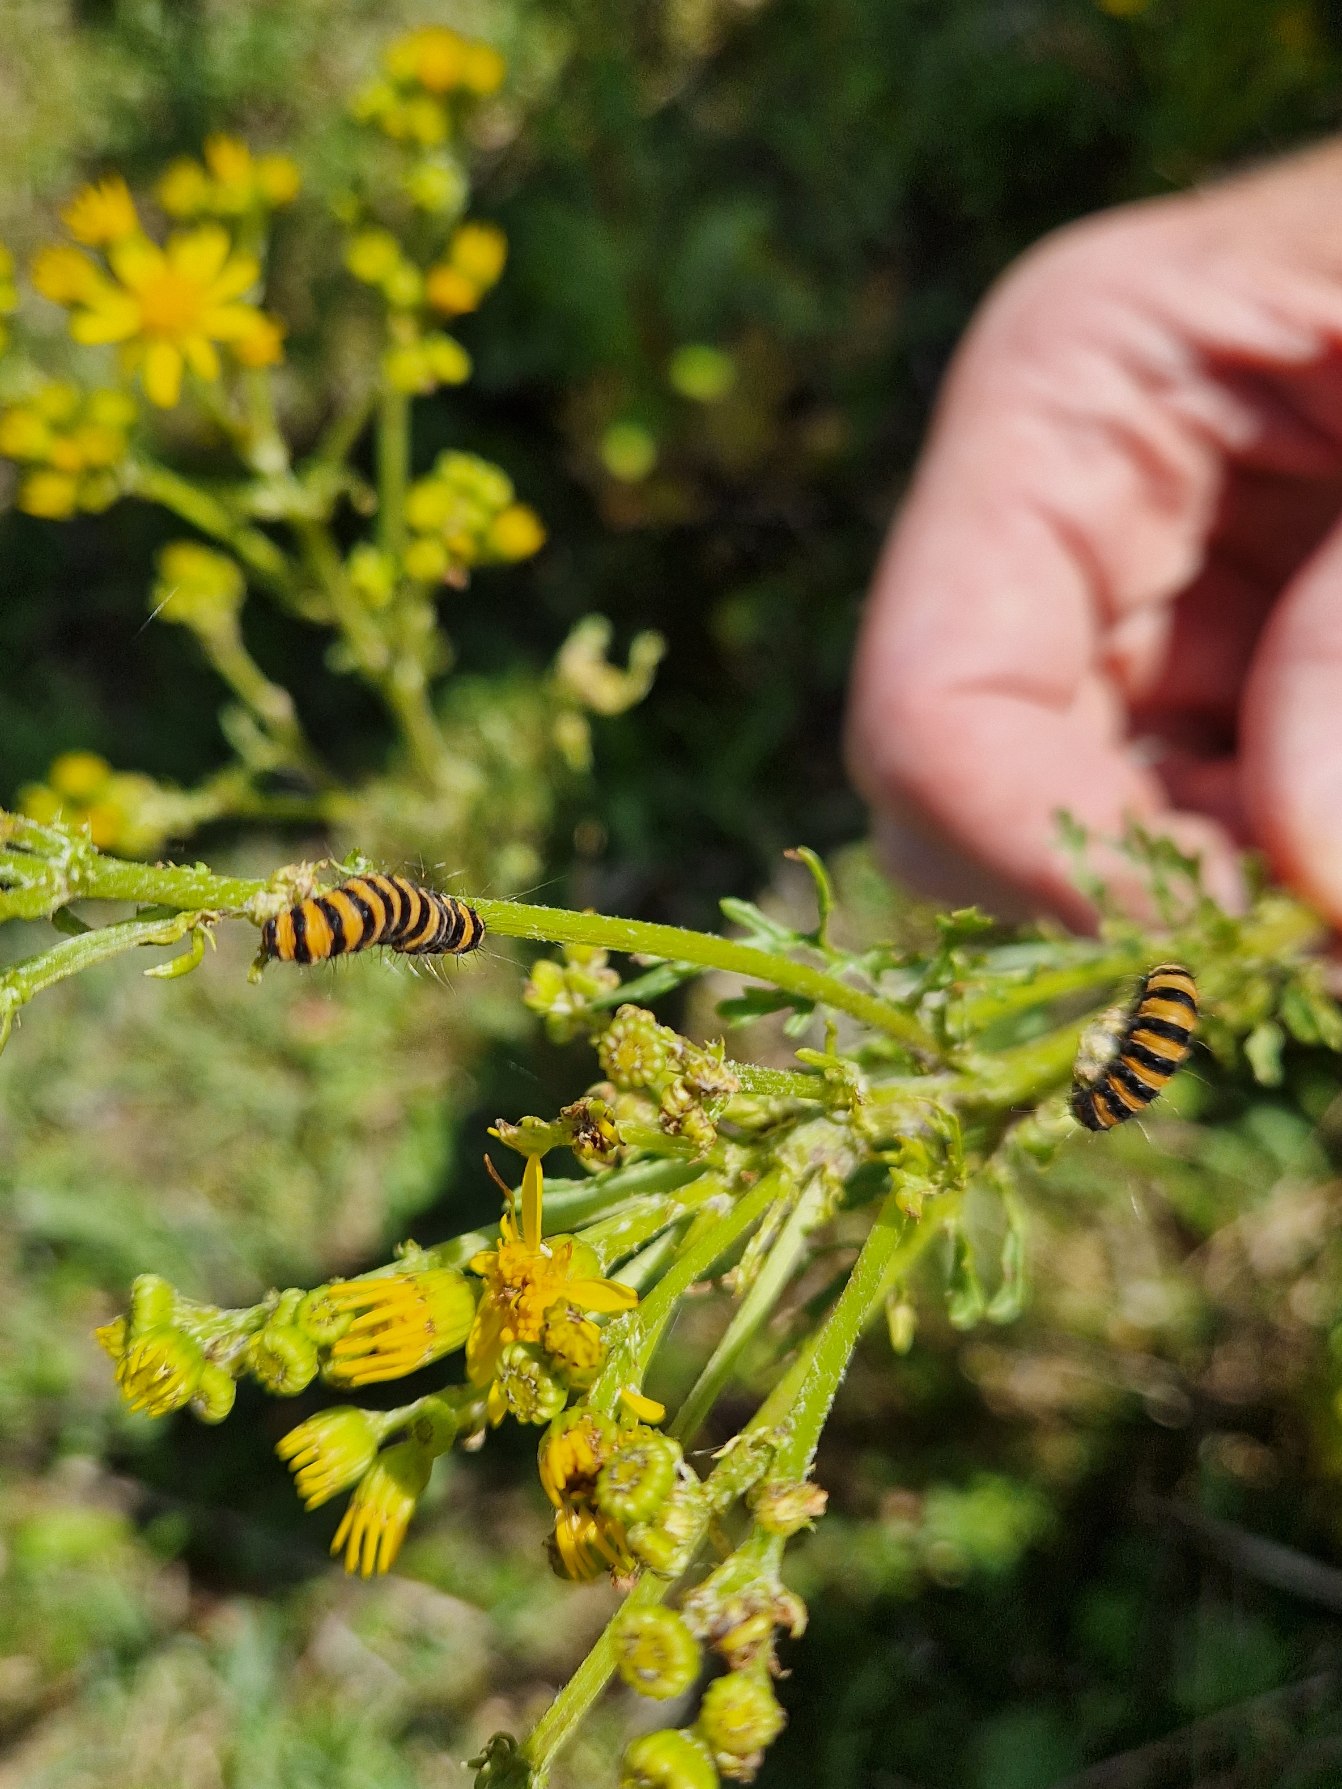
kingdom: Animalia
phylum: Arthropoda
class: Insecta
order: Lepidoptera
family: Erebidae
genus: Tyria
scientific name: Tyria jacobaeae
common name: Blodplet
